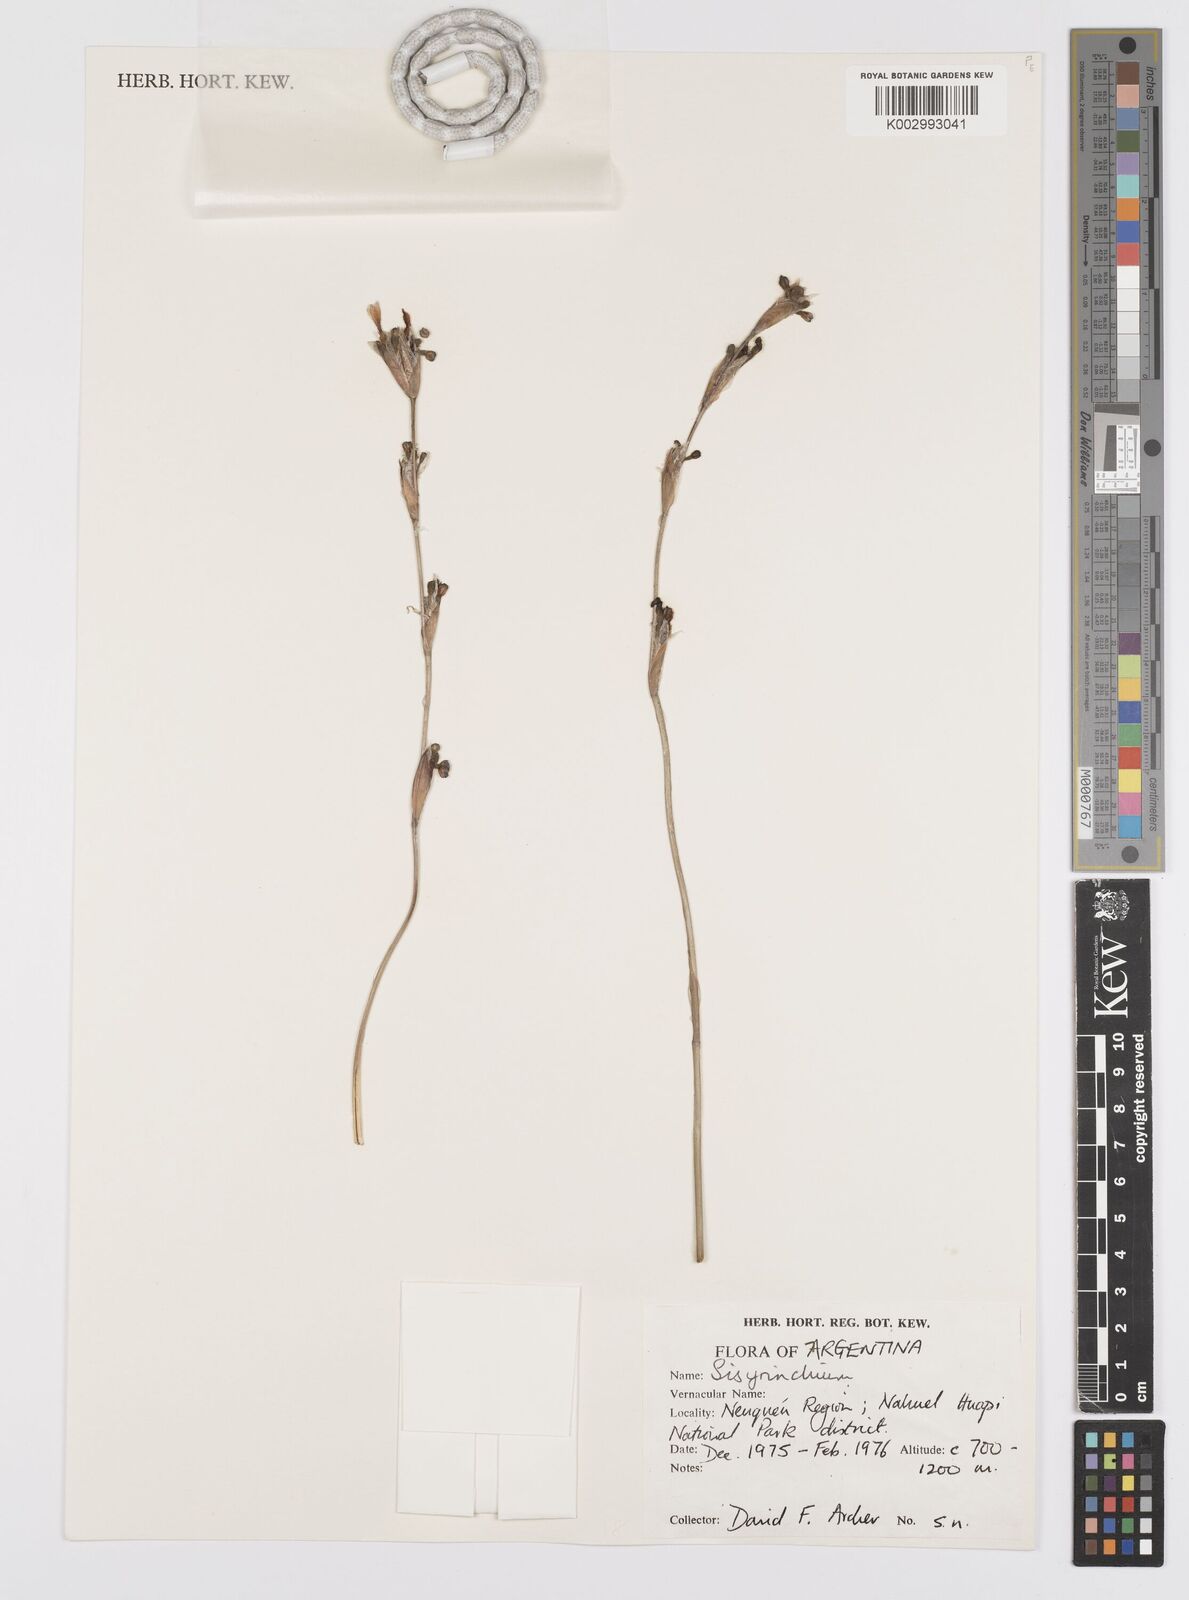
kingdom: Plantae
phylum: Tracheophyta
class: Liliopsida
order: Asparagales
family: Iridaceae
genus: Sisyrinchium
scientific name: Sisyrinchium
